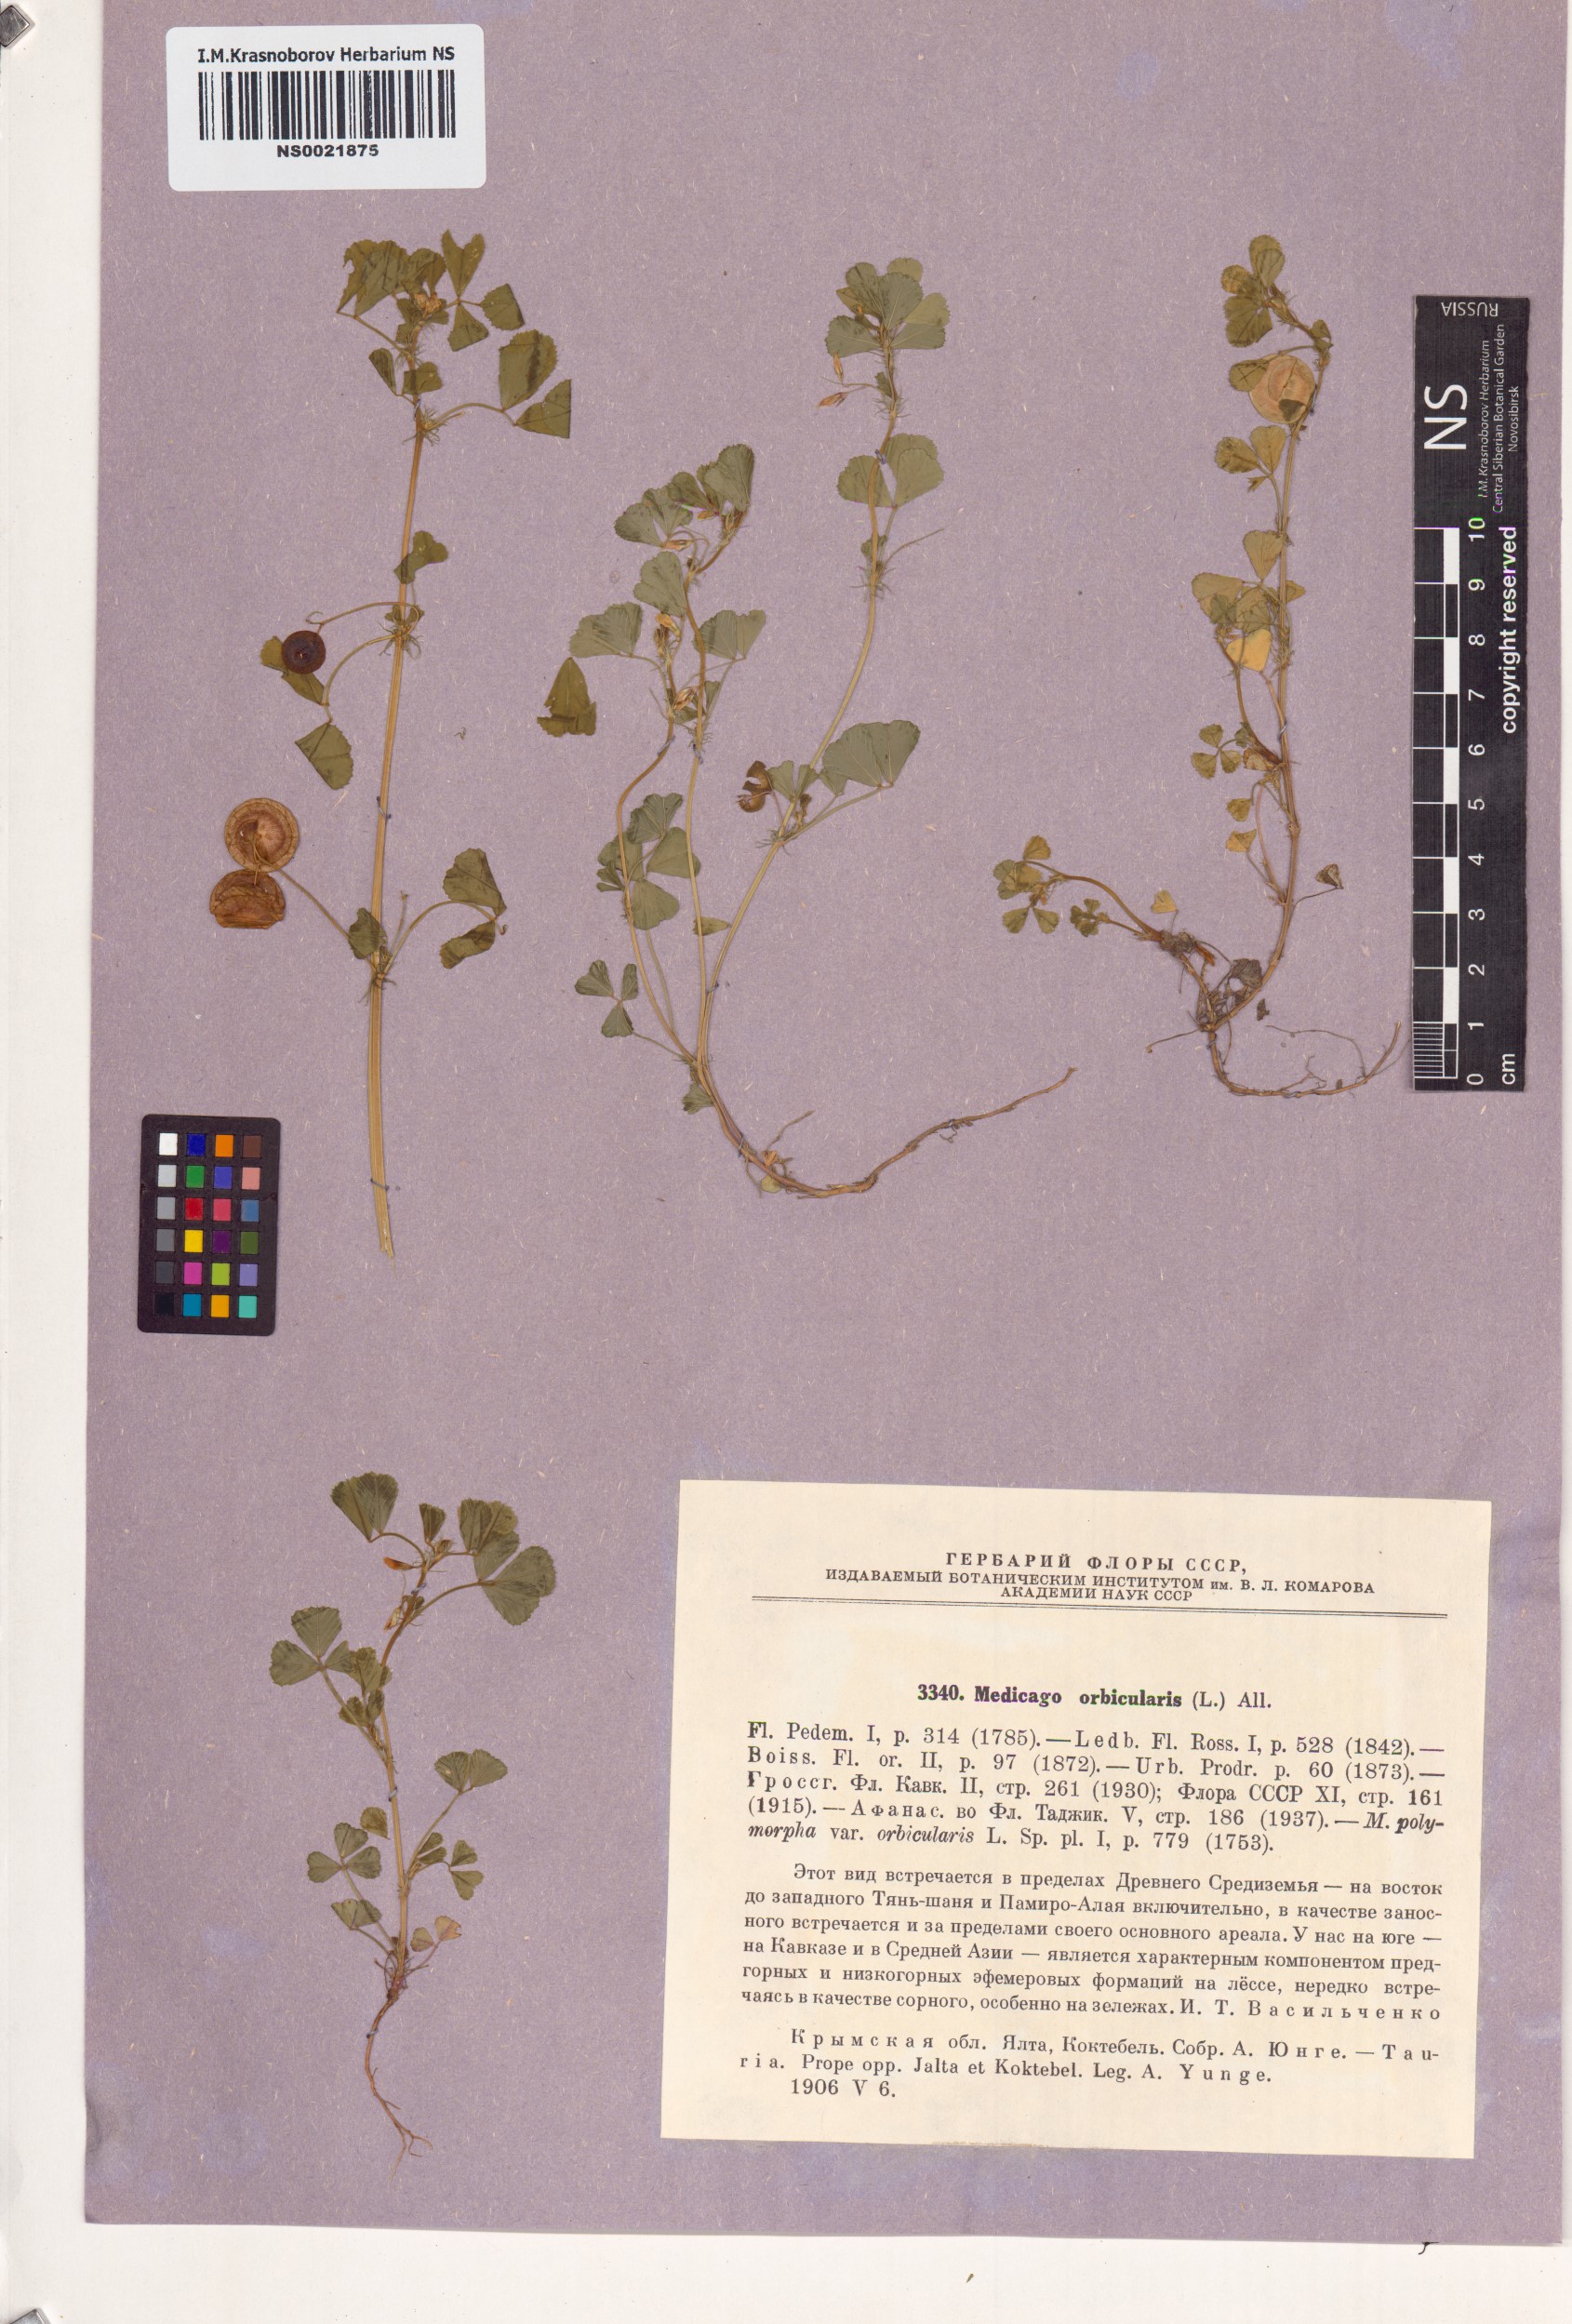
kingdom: Plantae
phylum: Tracheophyta
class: Magnoliopsida
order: Fabales
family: Fabaceae
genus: Medicago
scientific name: Medicago orbicularis
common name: Button medick
